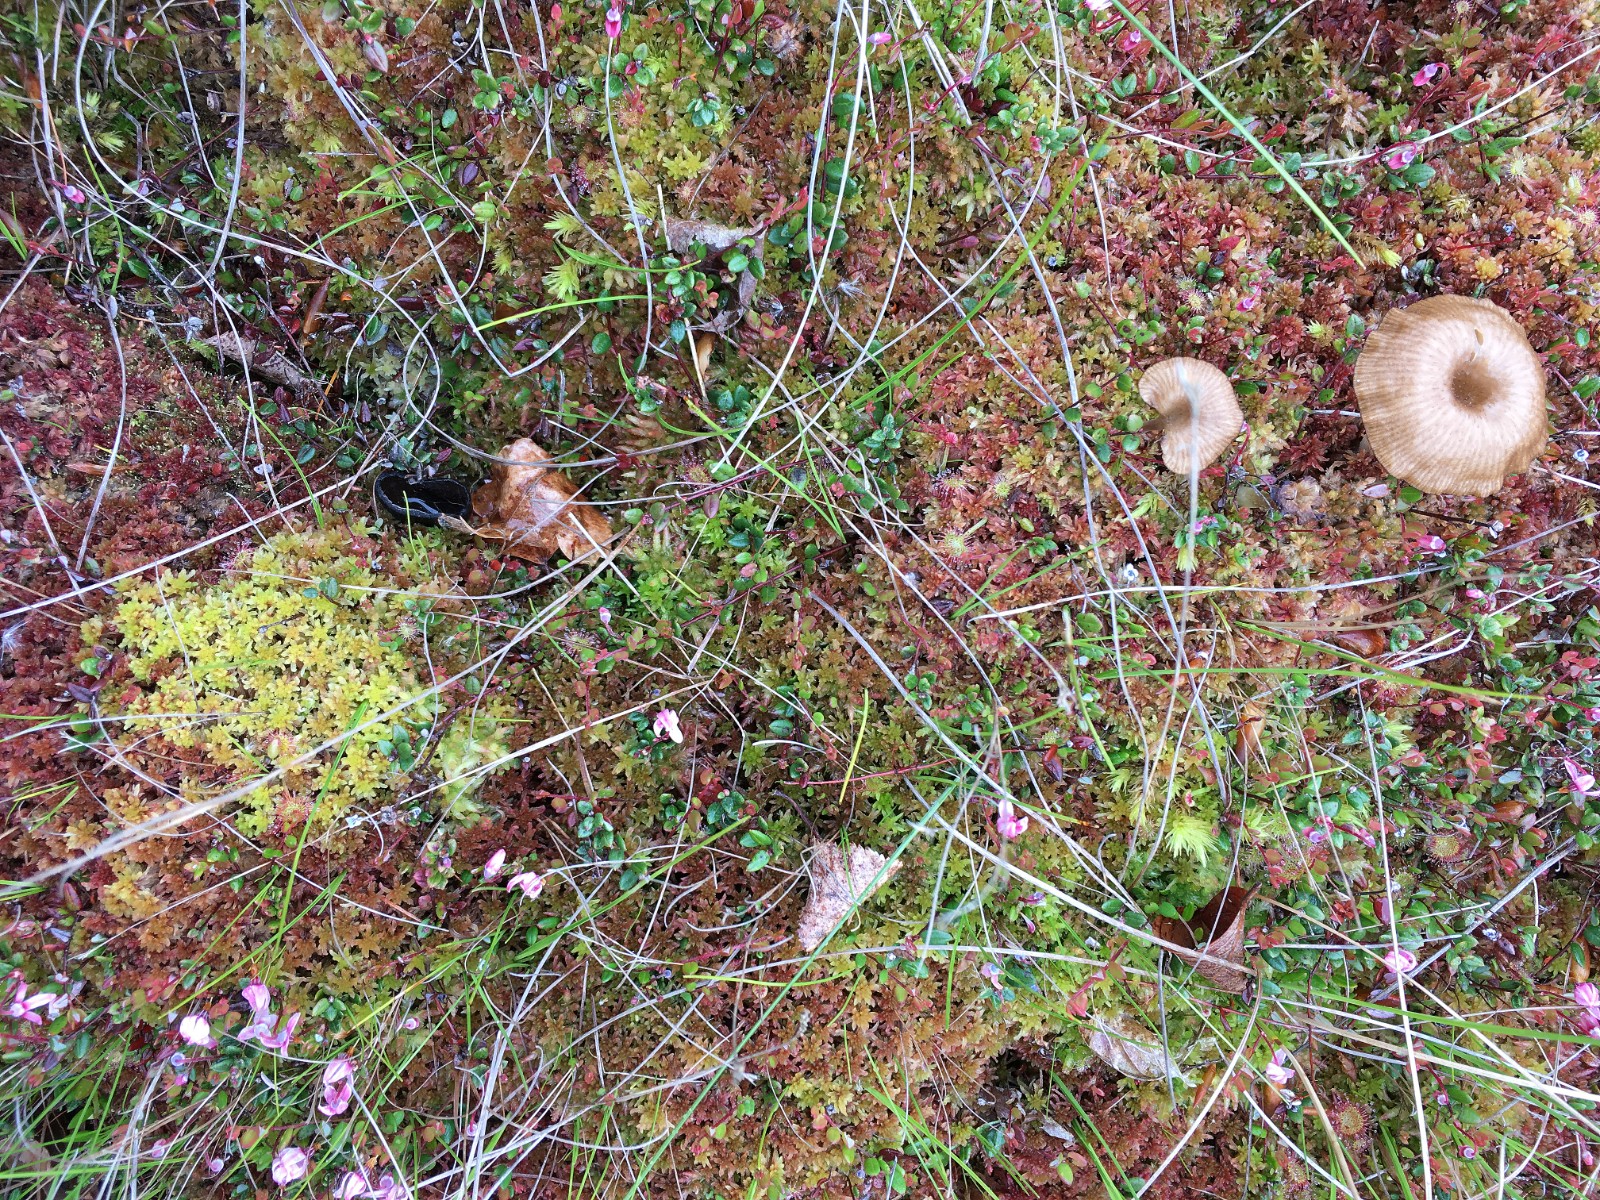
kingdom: Fungi
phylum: Ascomycota
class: Pezizomycetes
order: Pezizales
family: Sarcosomataceae
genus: Pseudoplectania
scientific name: Pseudoplectania episphagnum
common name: tørvemos-sortbæger
